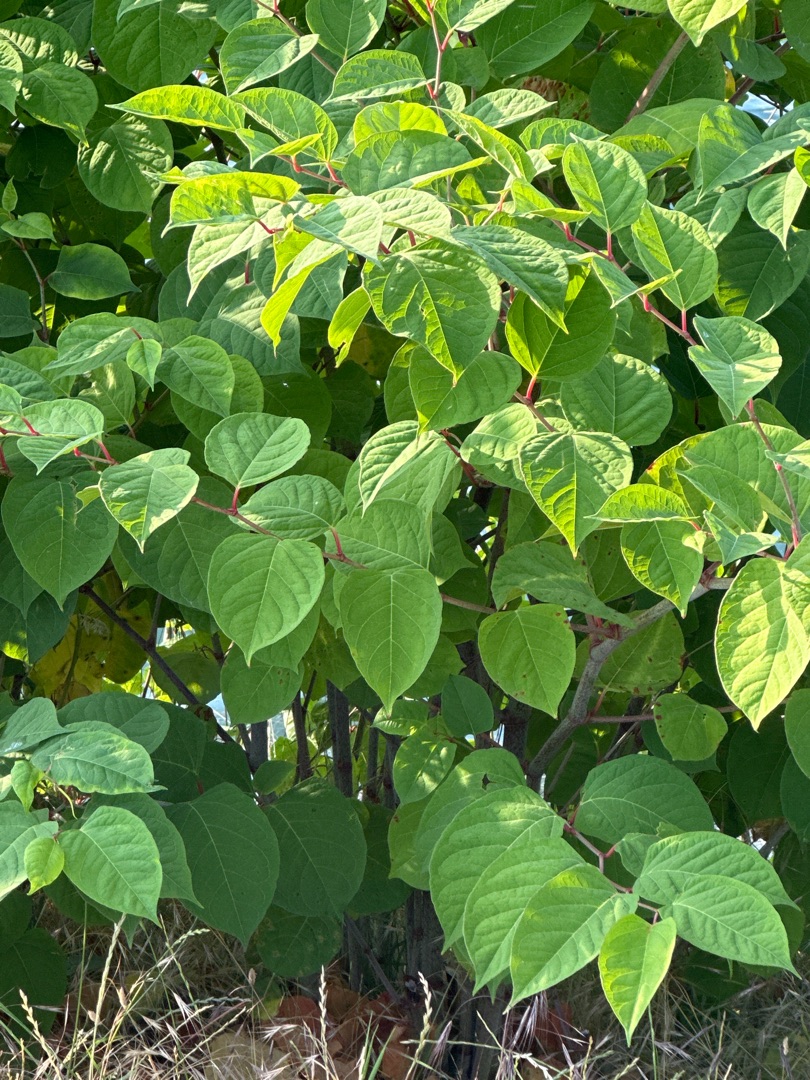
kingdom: Plantae
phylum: Tracheophyta
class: Magnoliopsida
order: Caryophyllales
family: Polygonaceae
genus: Reynoutria
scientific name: Reynoutria japonica
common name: Japan-pileurt
